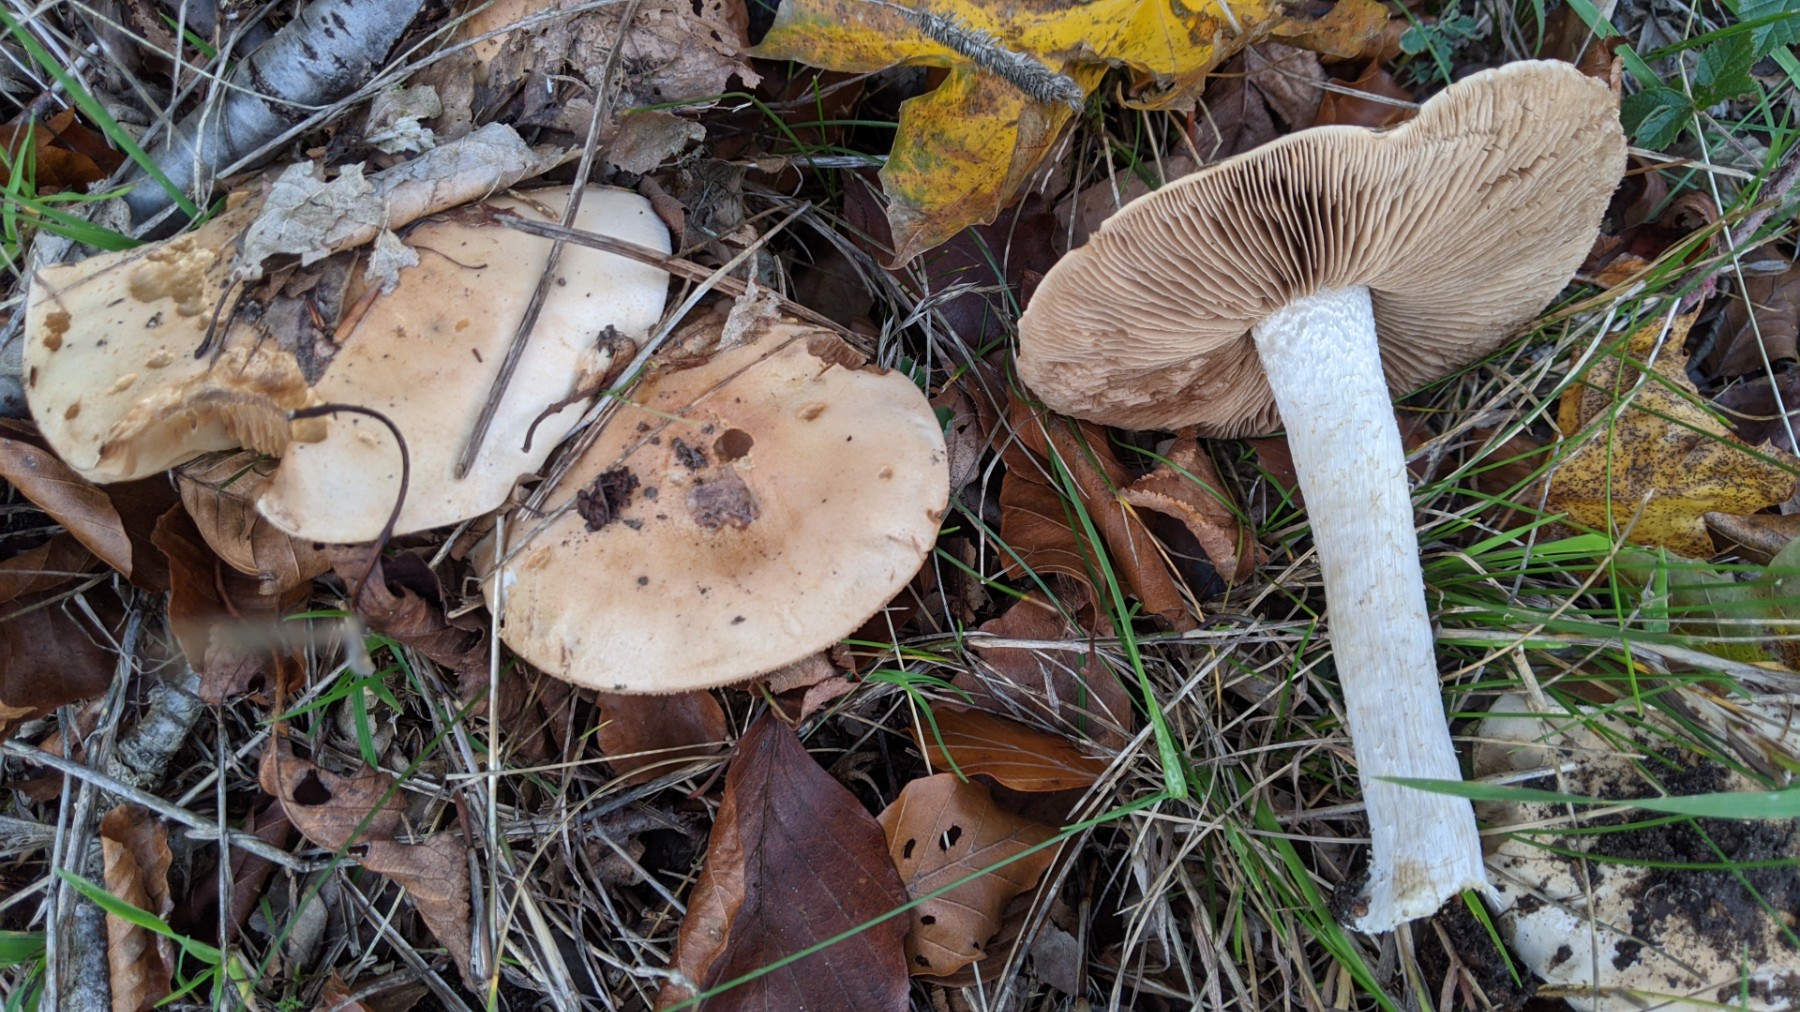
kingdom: Fungi
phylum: Basidiomycota
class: Agaricomycetes
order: Agaricales
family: Hymenogastraceae
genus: Hebeloma
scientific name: Hebeloma
